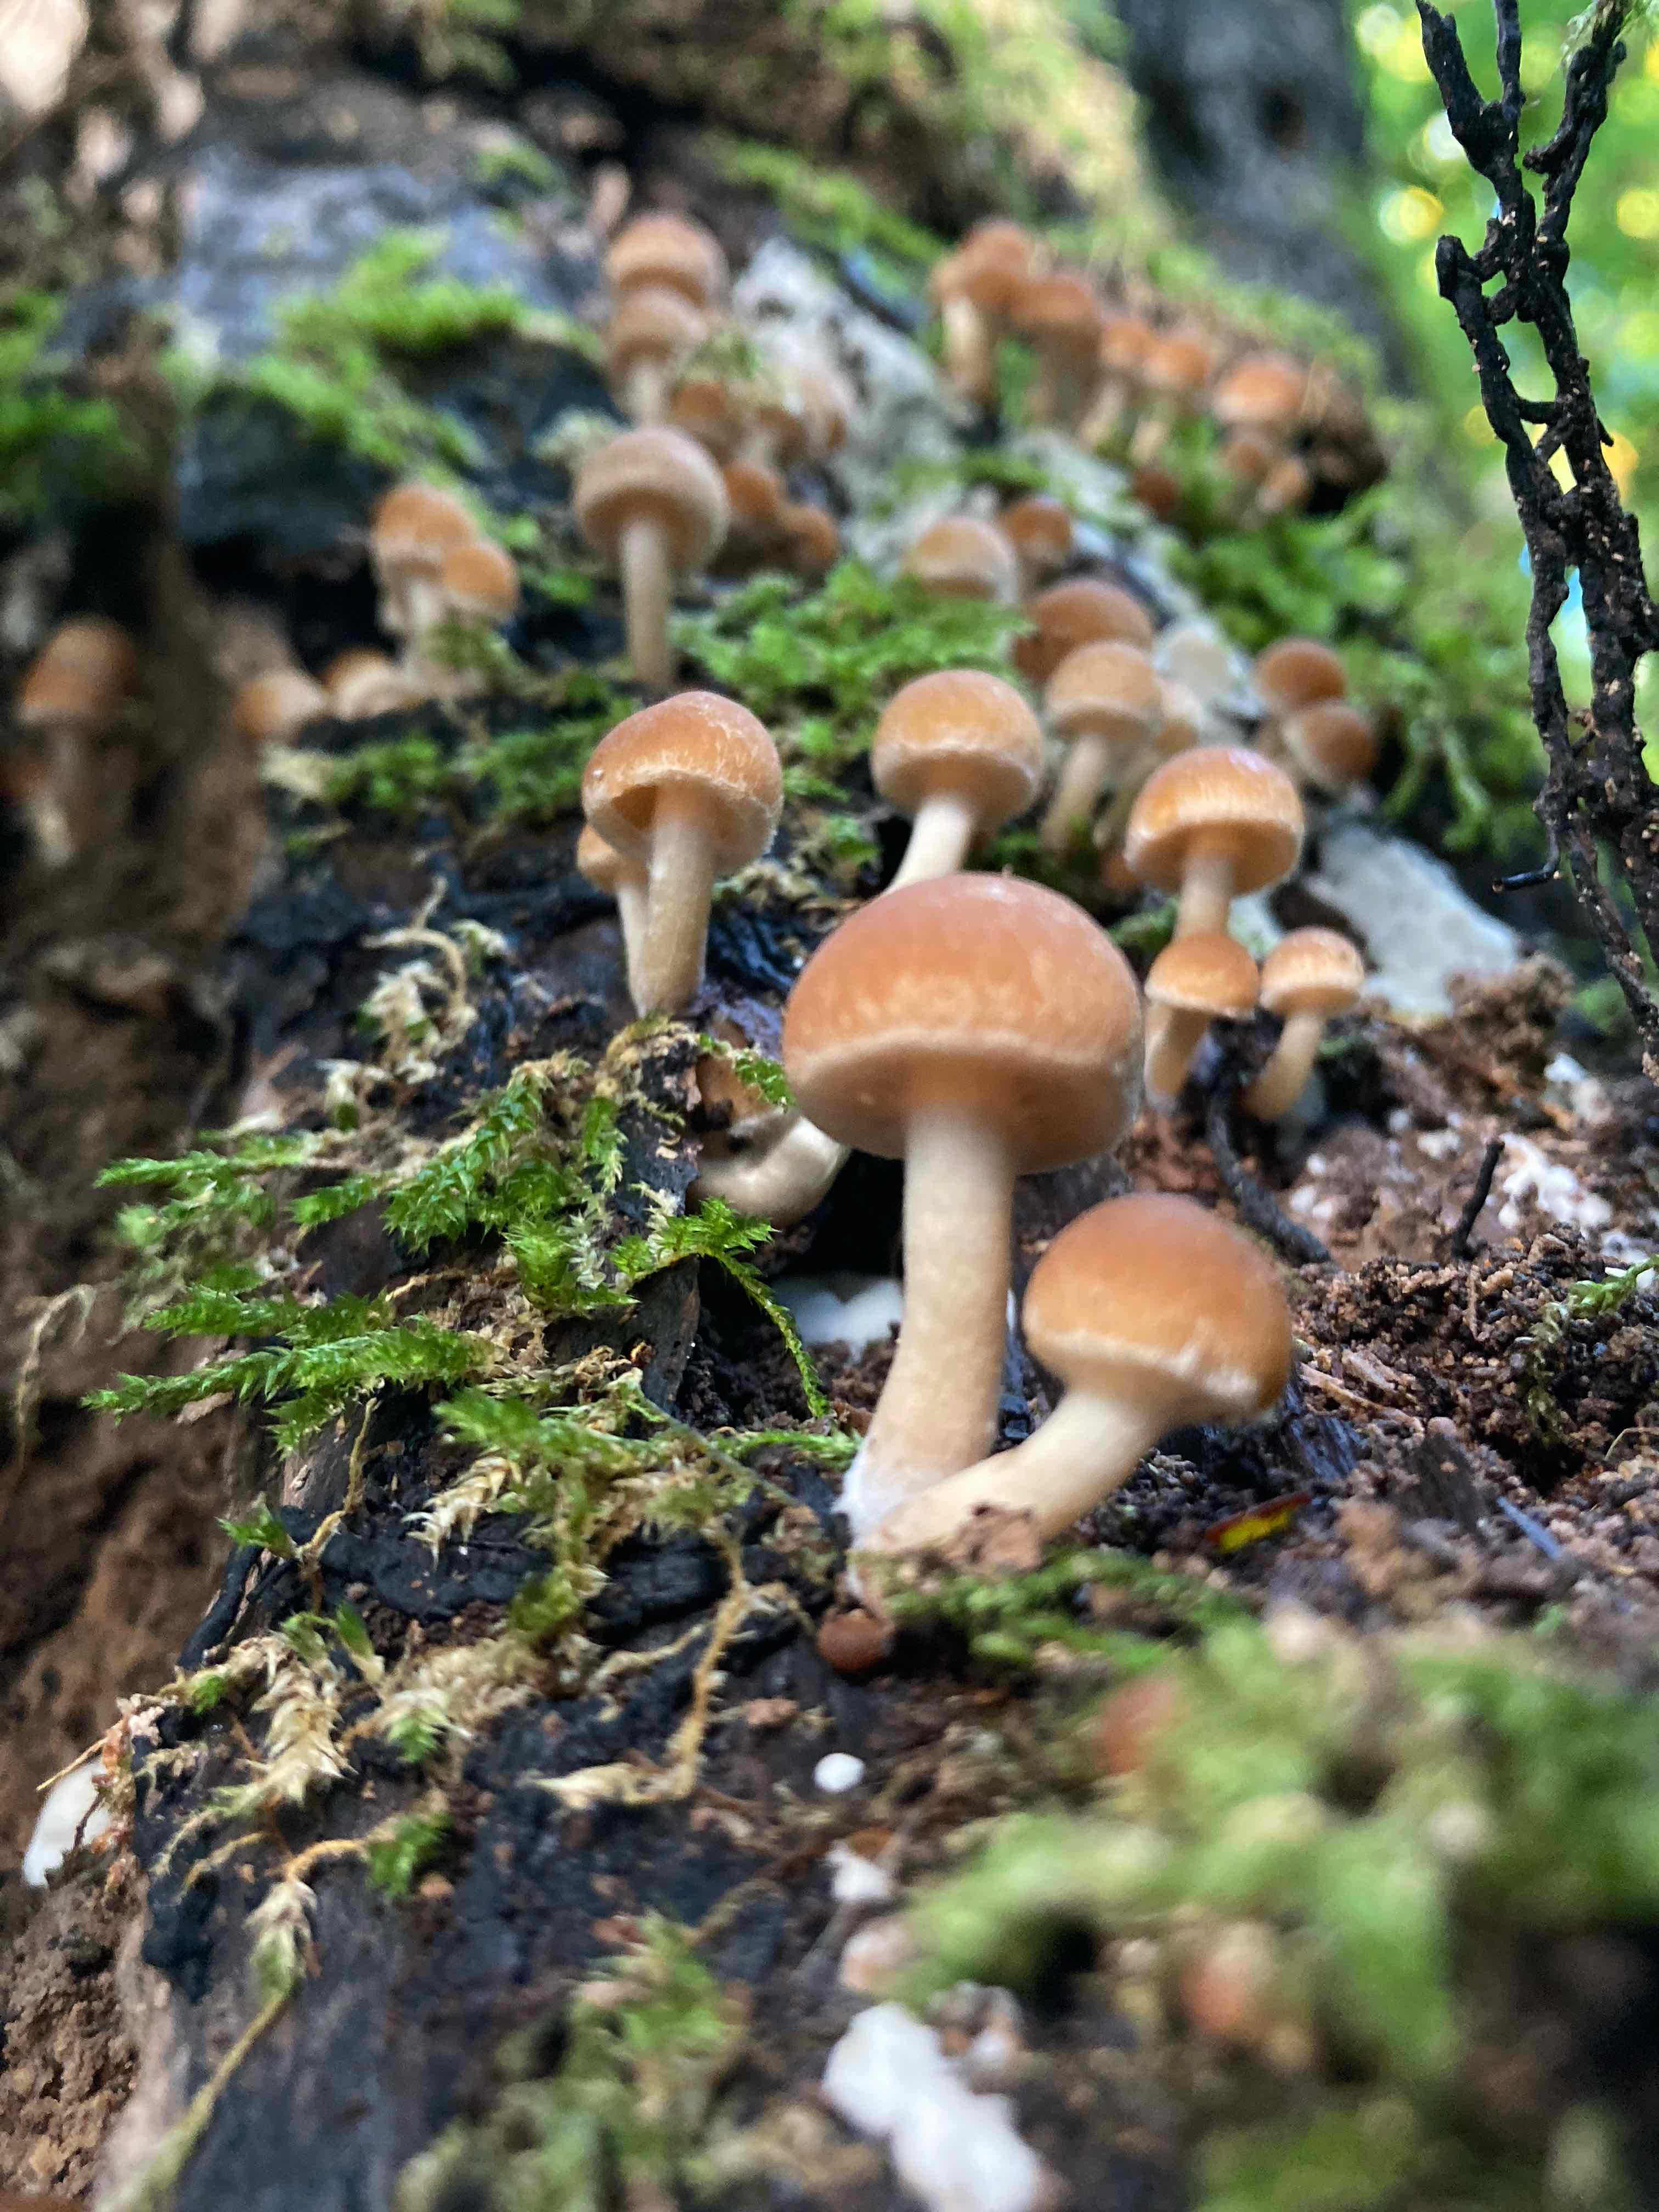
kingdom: Fungi
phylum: Basidiomycota
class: Agaricomycetes
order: Agaricales
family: Psathyrellaceae
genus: Psathyrella
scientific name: Psathyrella piluliformis
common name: lysstokket mørkhat
